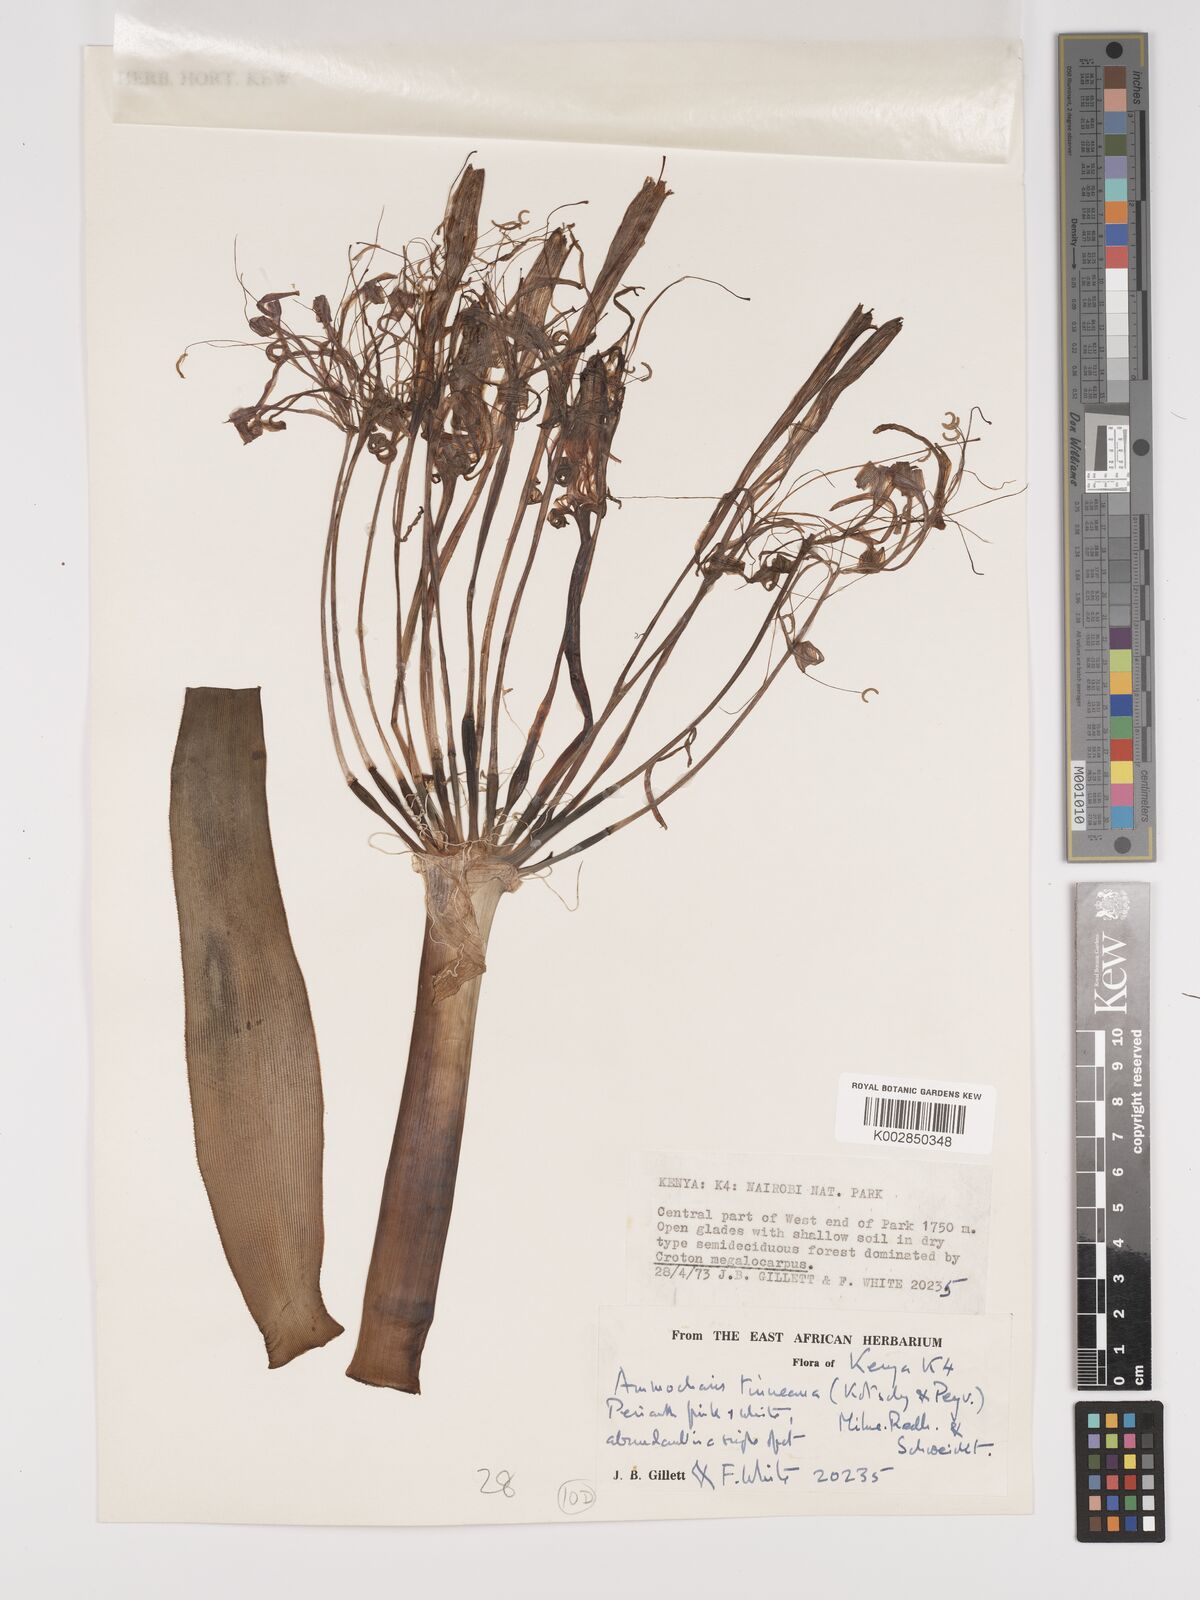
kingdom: Plantae
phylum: Tracheophyta
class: Liliopsida
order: Asparagales
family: Amaryllidaceae
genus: Ammocharis
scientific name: Ammocharis tinneana
